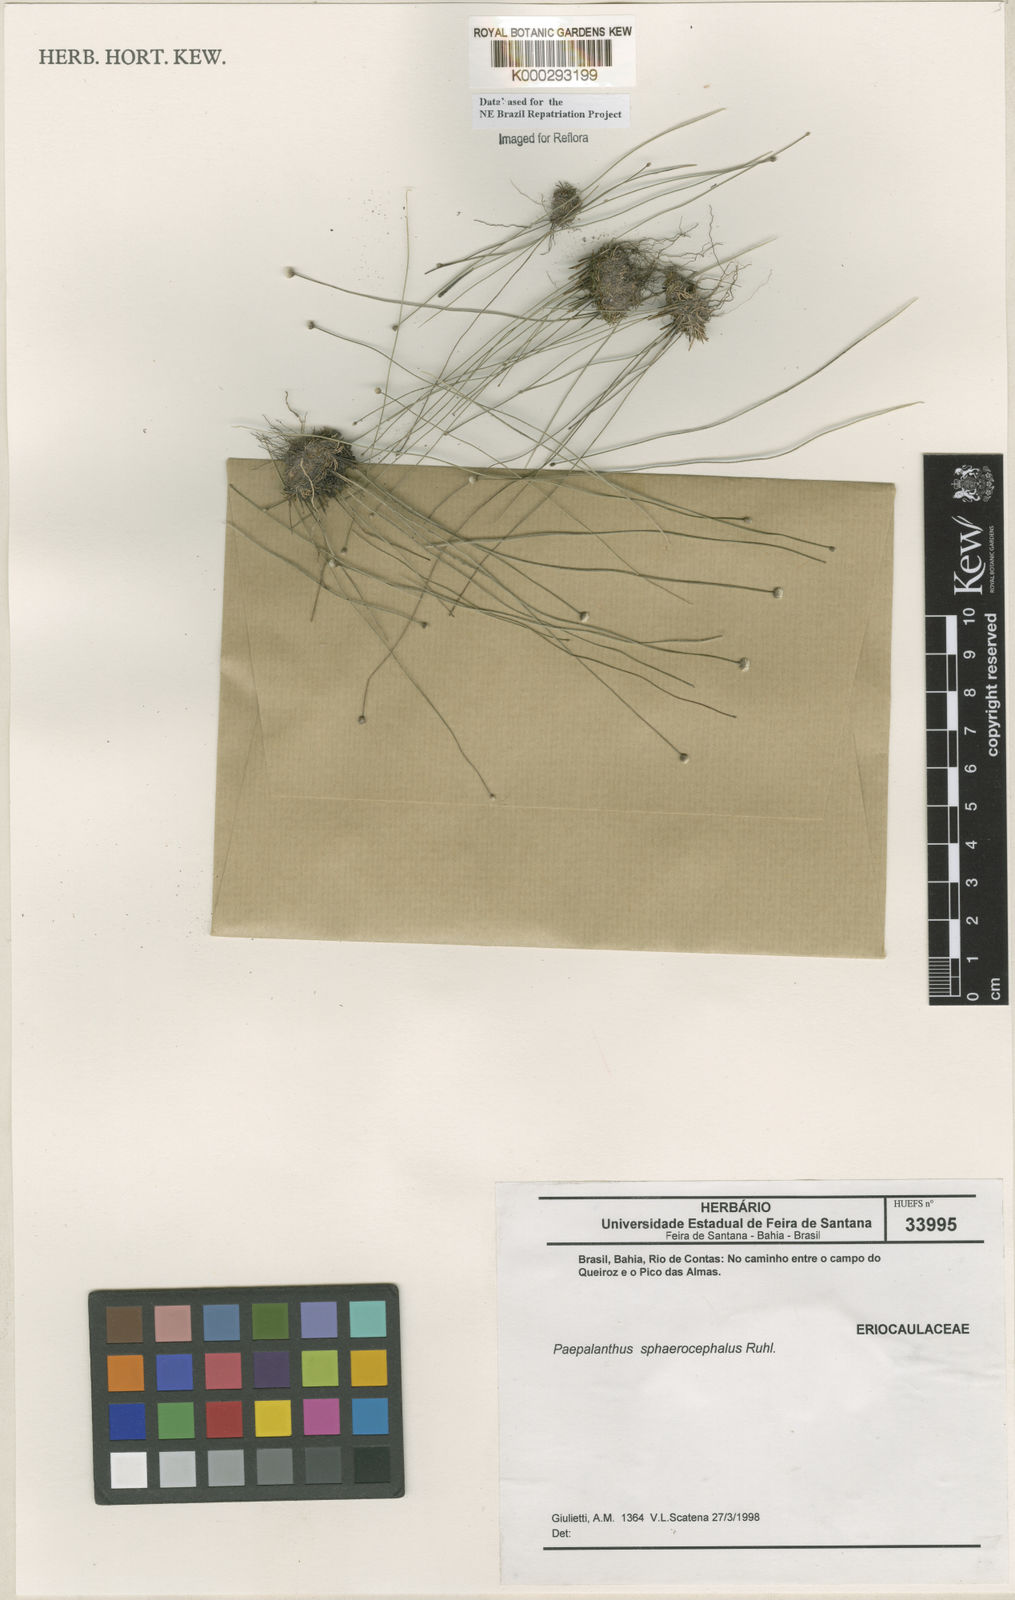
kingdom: Plantae
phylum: Tracheophyta
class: Liliopsida
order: Poales
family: Eriocaulaceae
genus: Paepalanthus
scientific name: Paepalanthus sphaerocephalus
